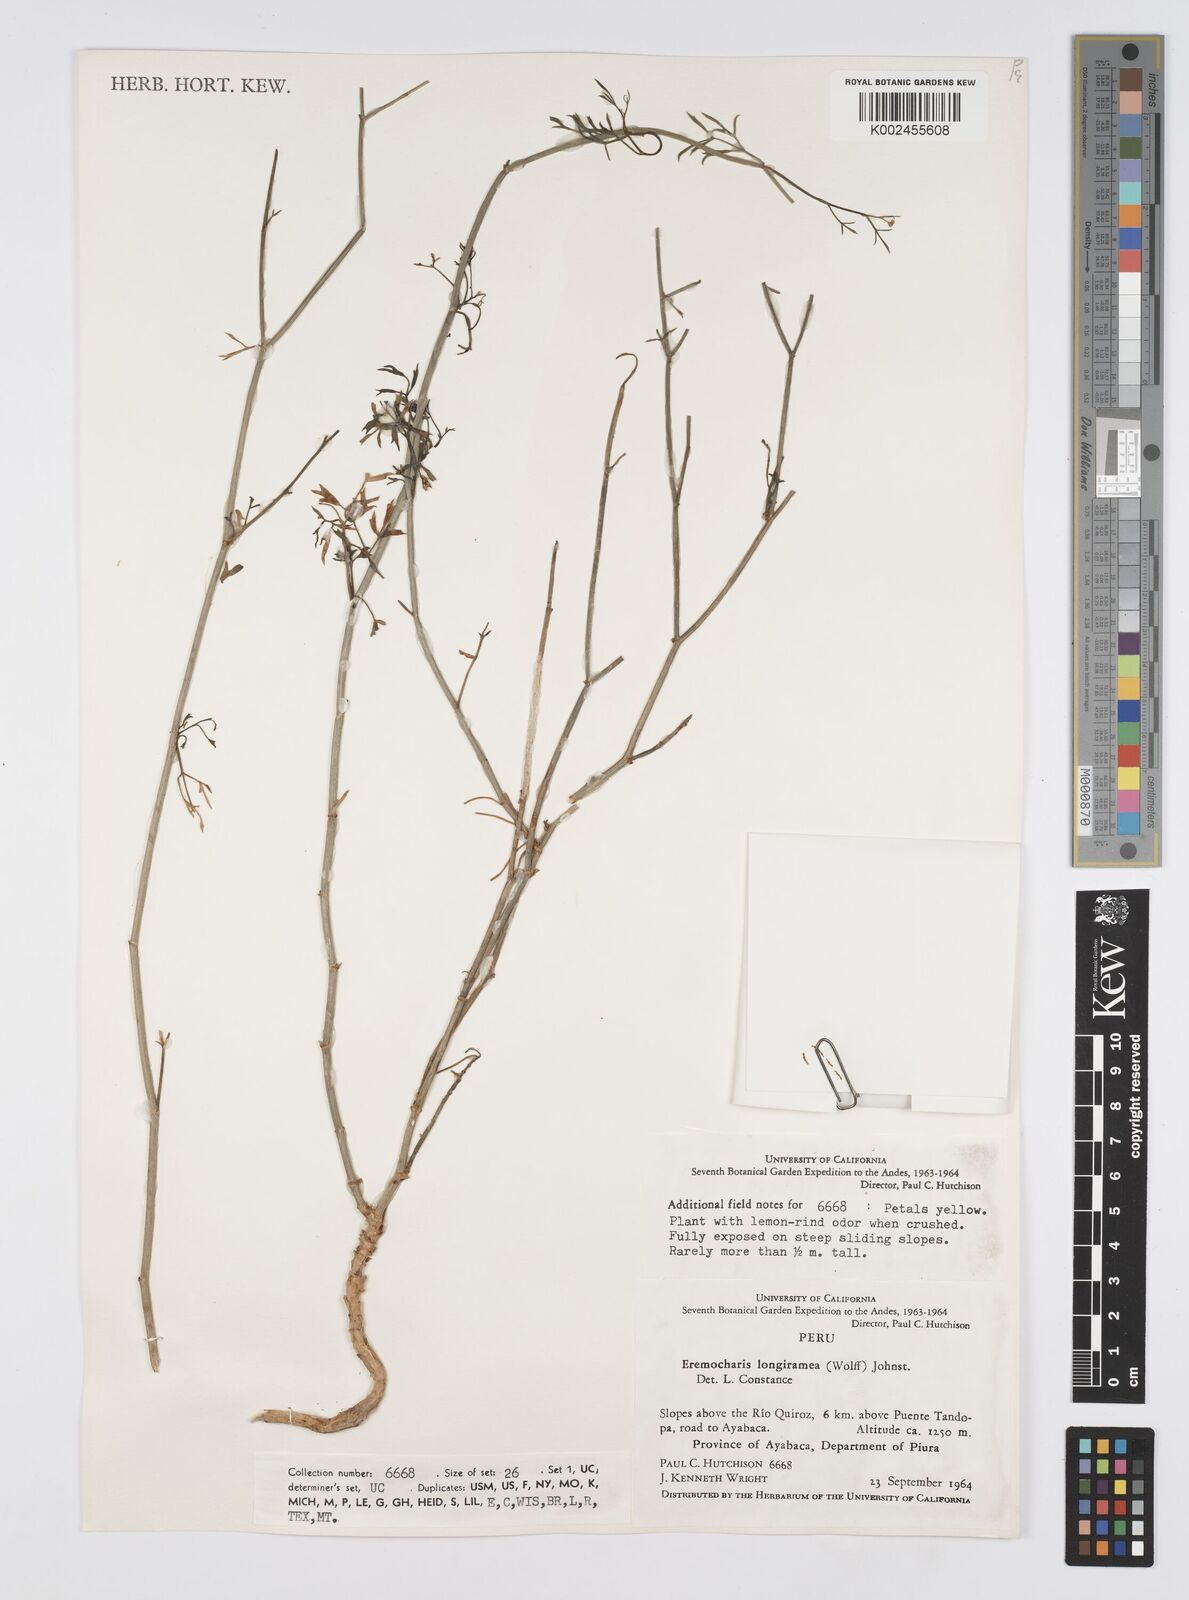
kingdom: Plantae
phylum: Tracheophyta
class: Magnoliopsida
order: Apiales
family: Apiaceae
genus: Eremocharis
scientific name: Eremocharis longiramea
